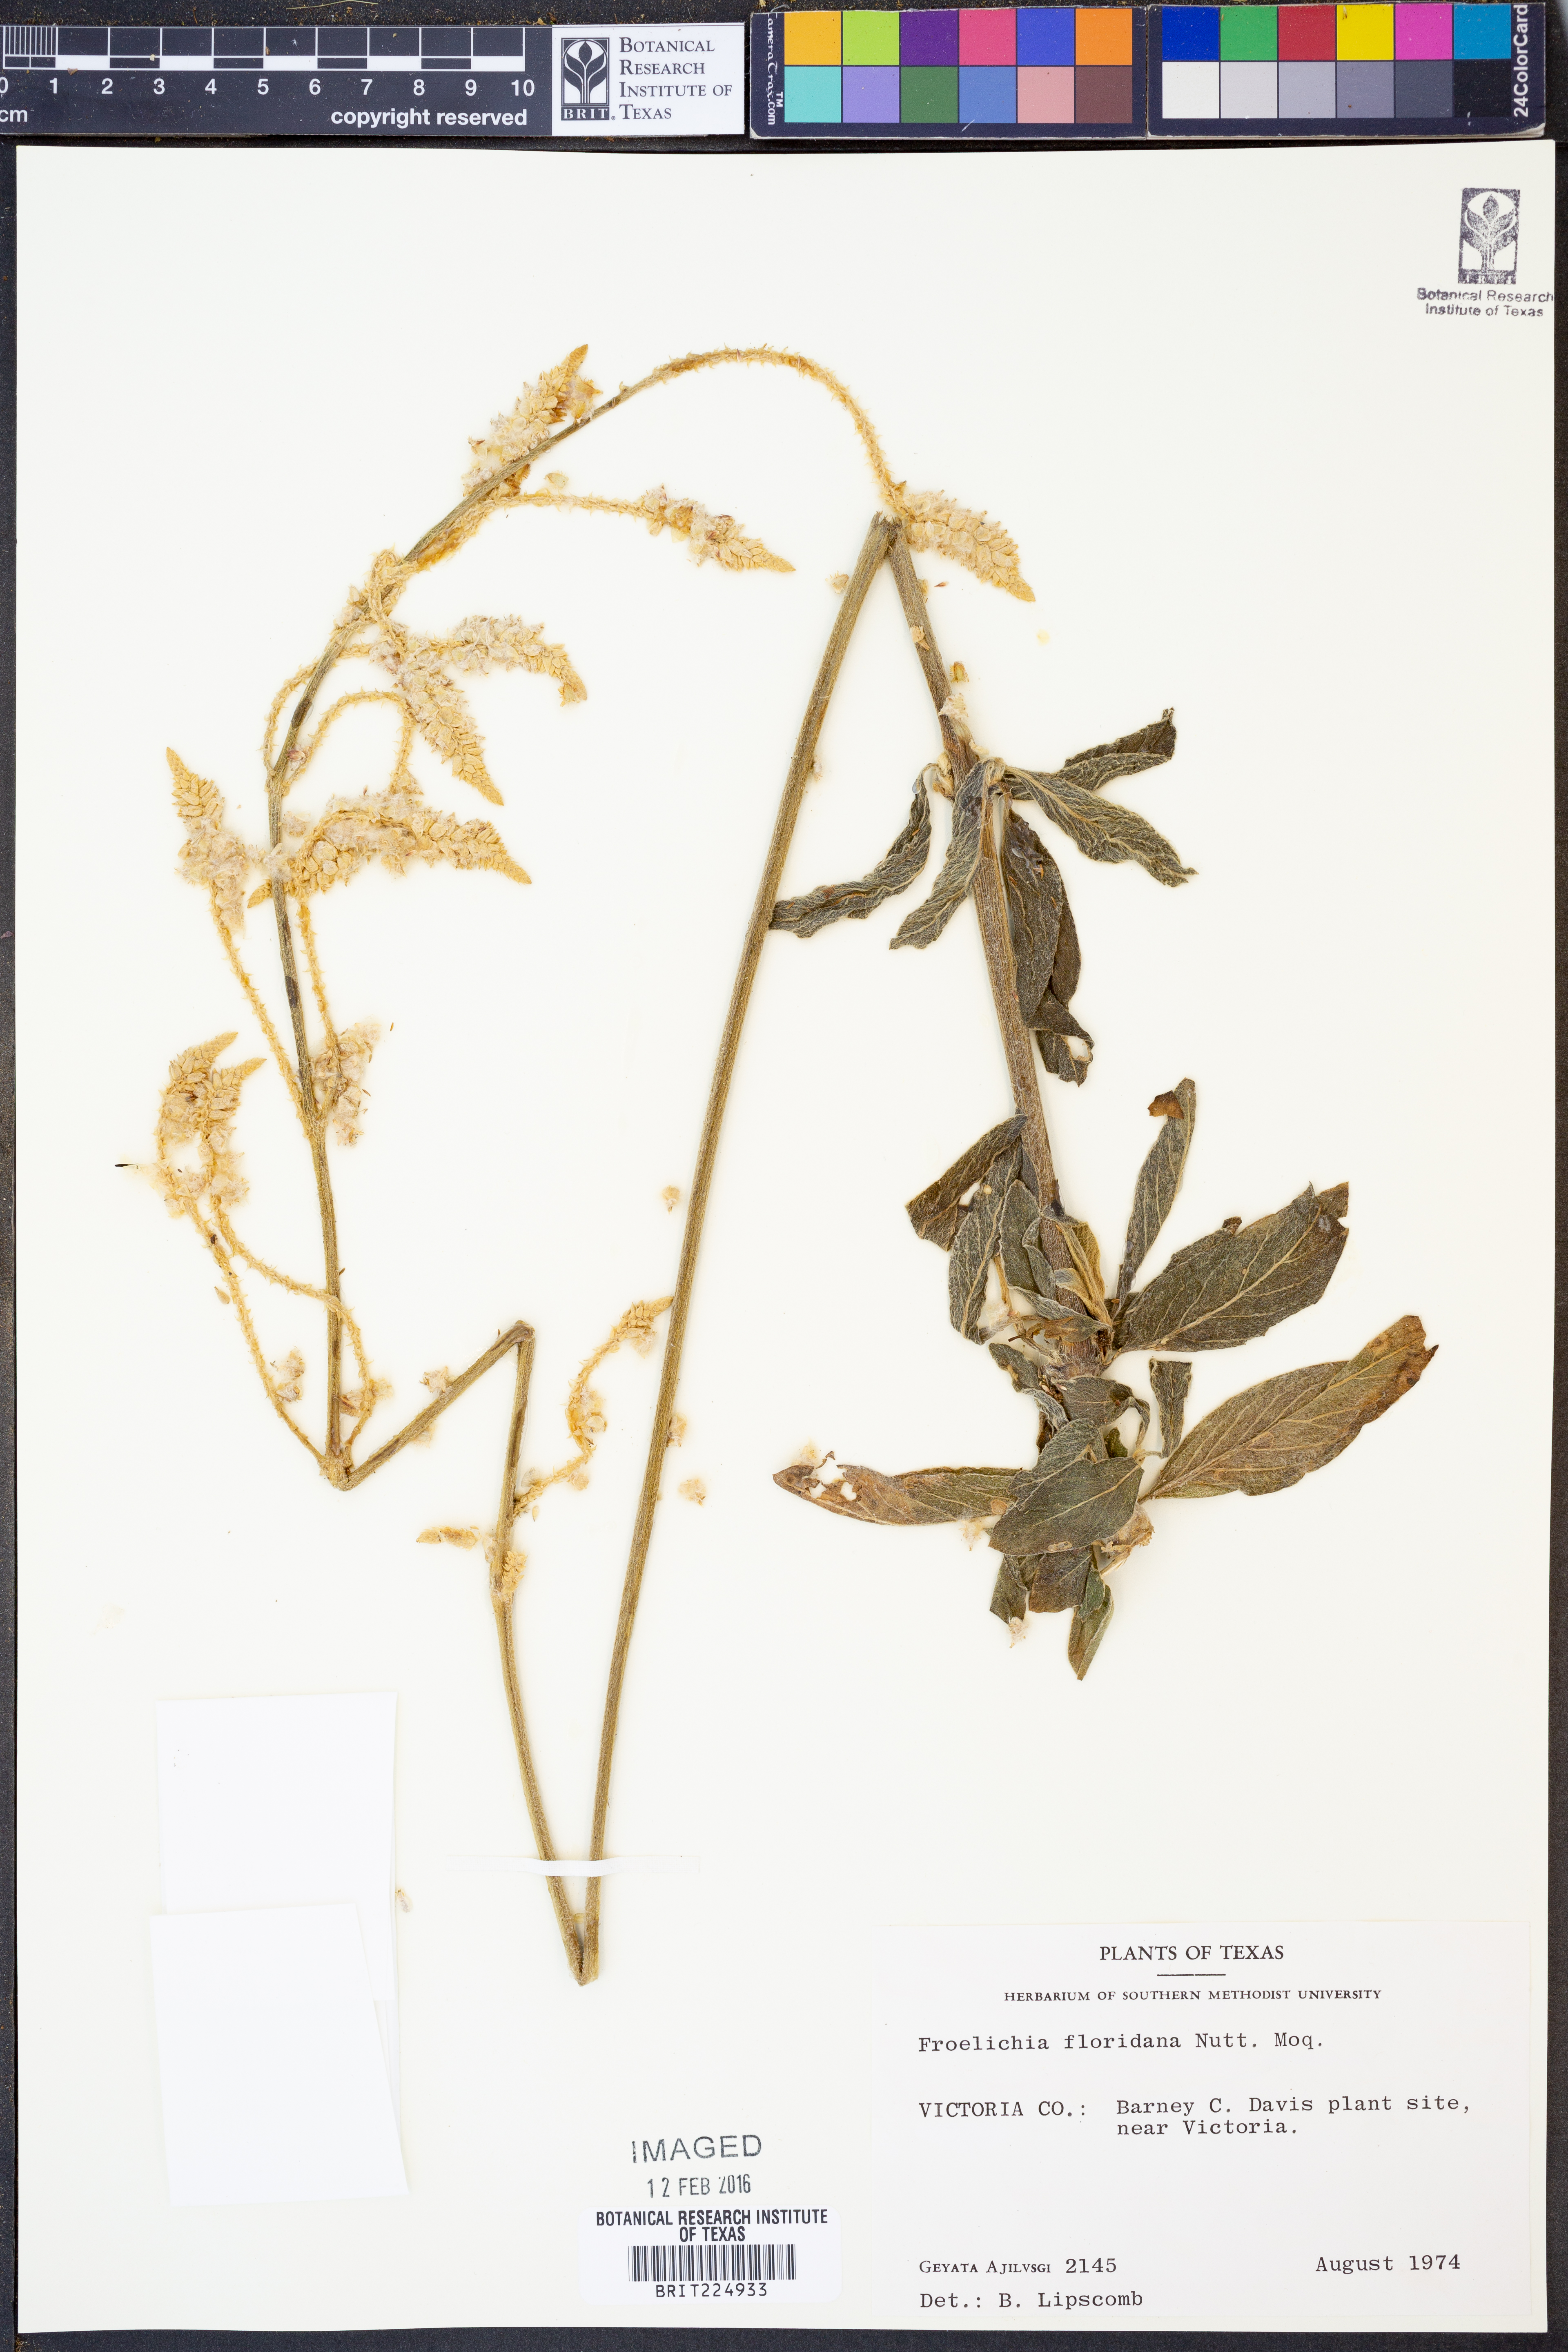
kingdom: Plantae
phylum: Tracheophyta
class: Magnoliopsida
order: Caryophyllales
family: Amaranthaceae
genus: Froelichia
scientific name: Froelichia floridana
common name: Florida snake-cotton
